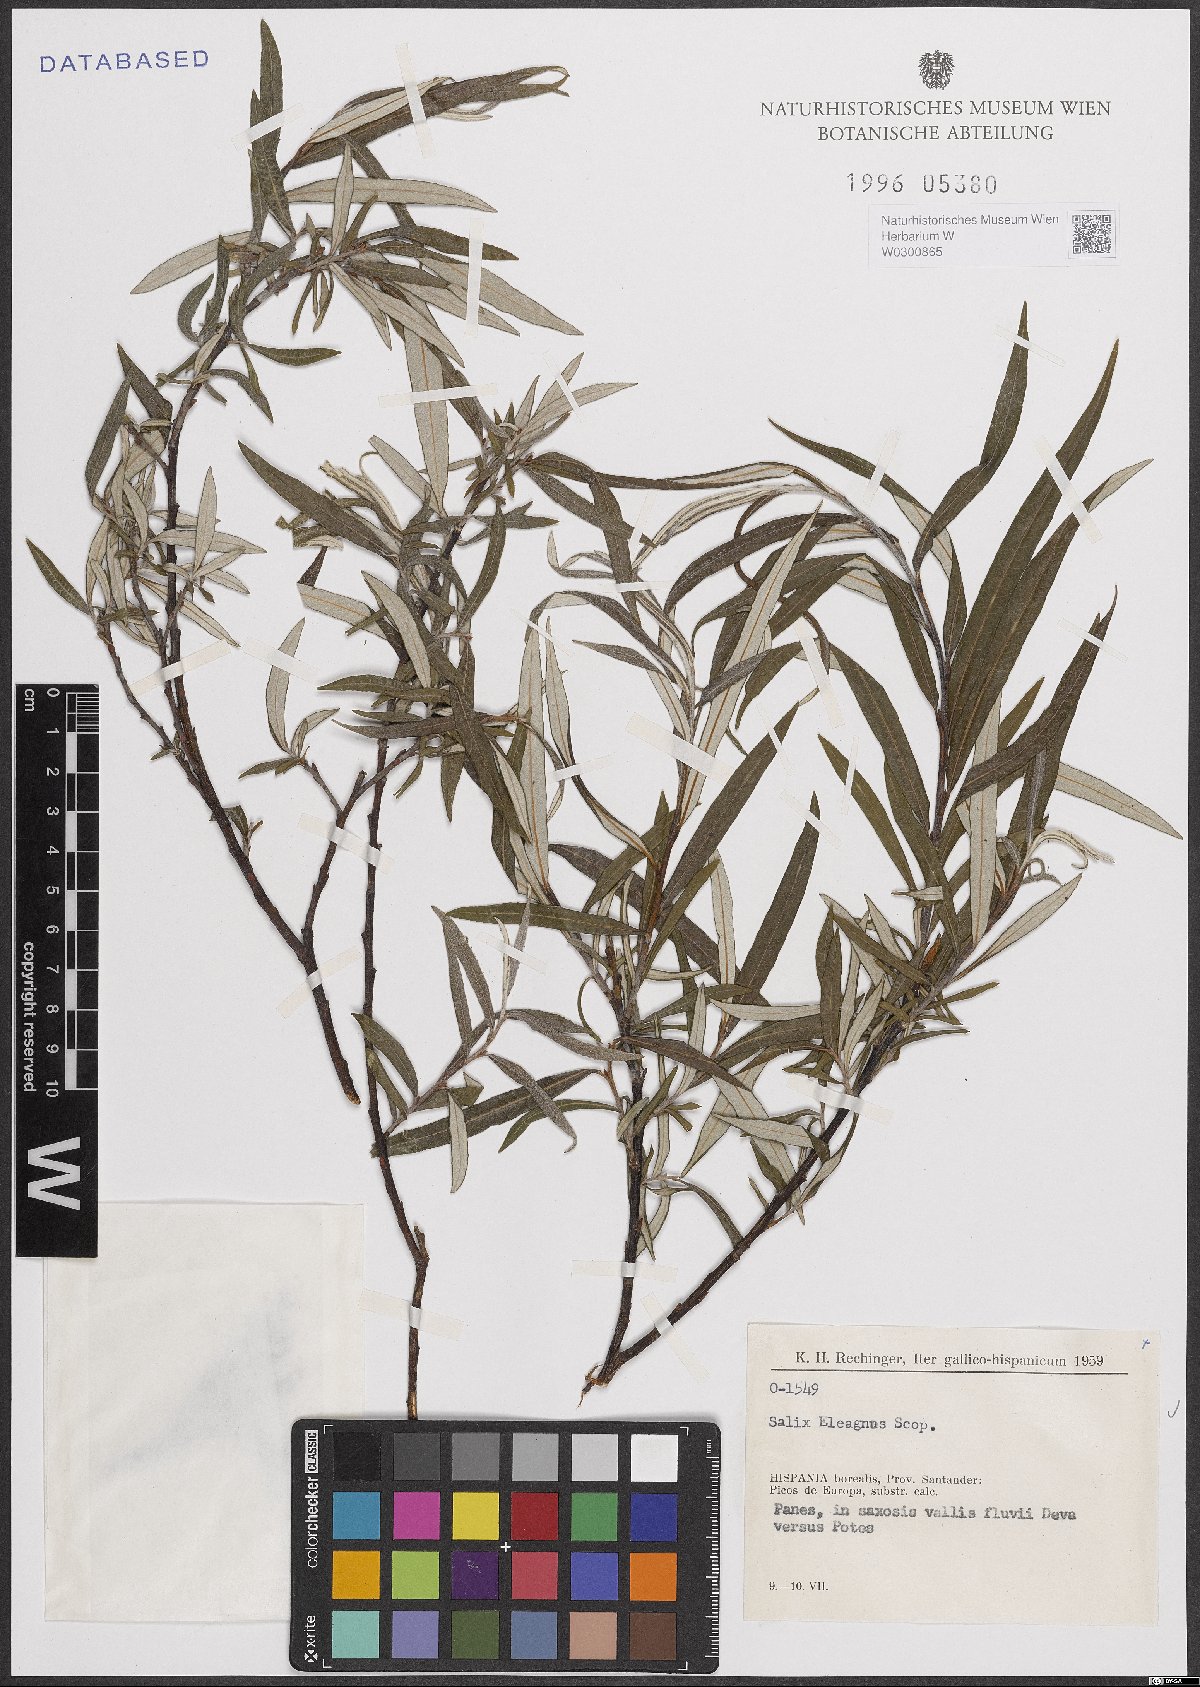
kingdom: Plantae
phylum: Tracheophyta
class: Magnoliopsida
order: Malpighiales
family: Salicaceae
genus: Salix
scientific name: Salix eleagnos
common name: Elaeagnus willow
